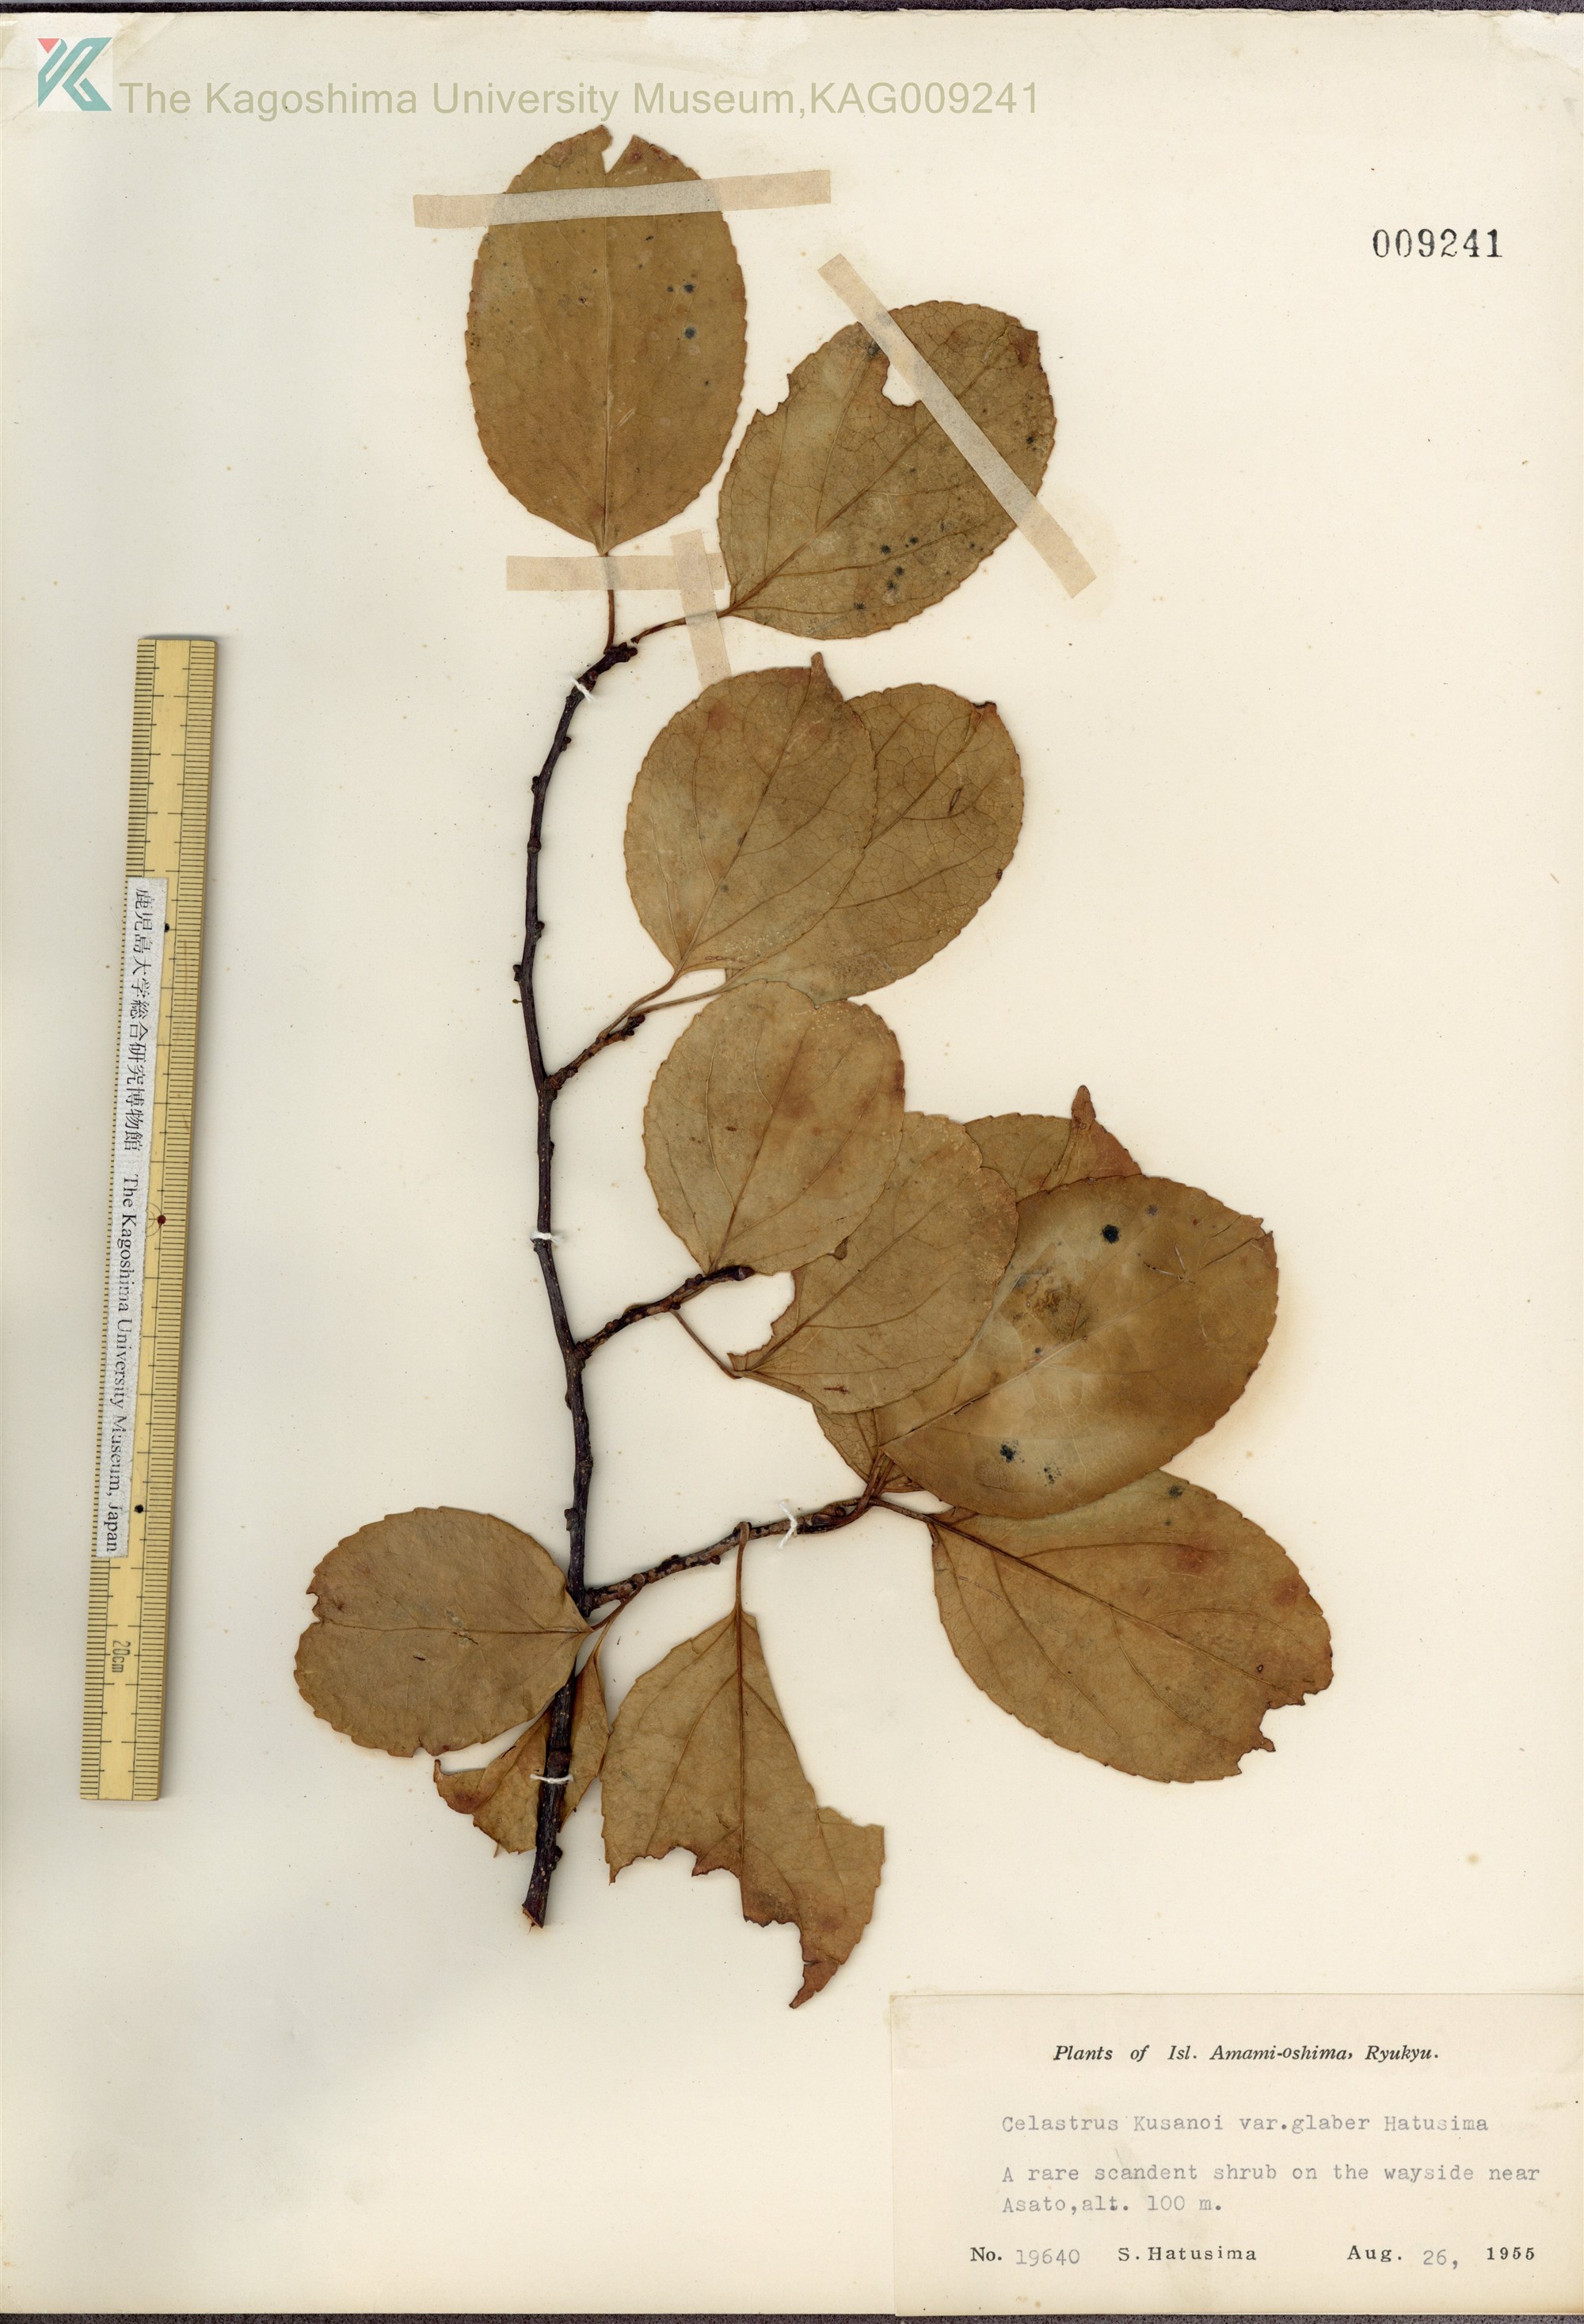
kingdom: Plantae
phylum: Tracheophyta
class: Magnoliopsida
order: Celastrales
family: Celastraceae
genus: Celastrus
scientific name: Celastrus hypoleucus
